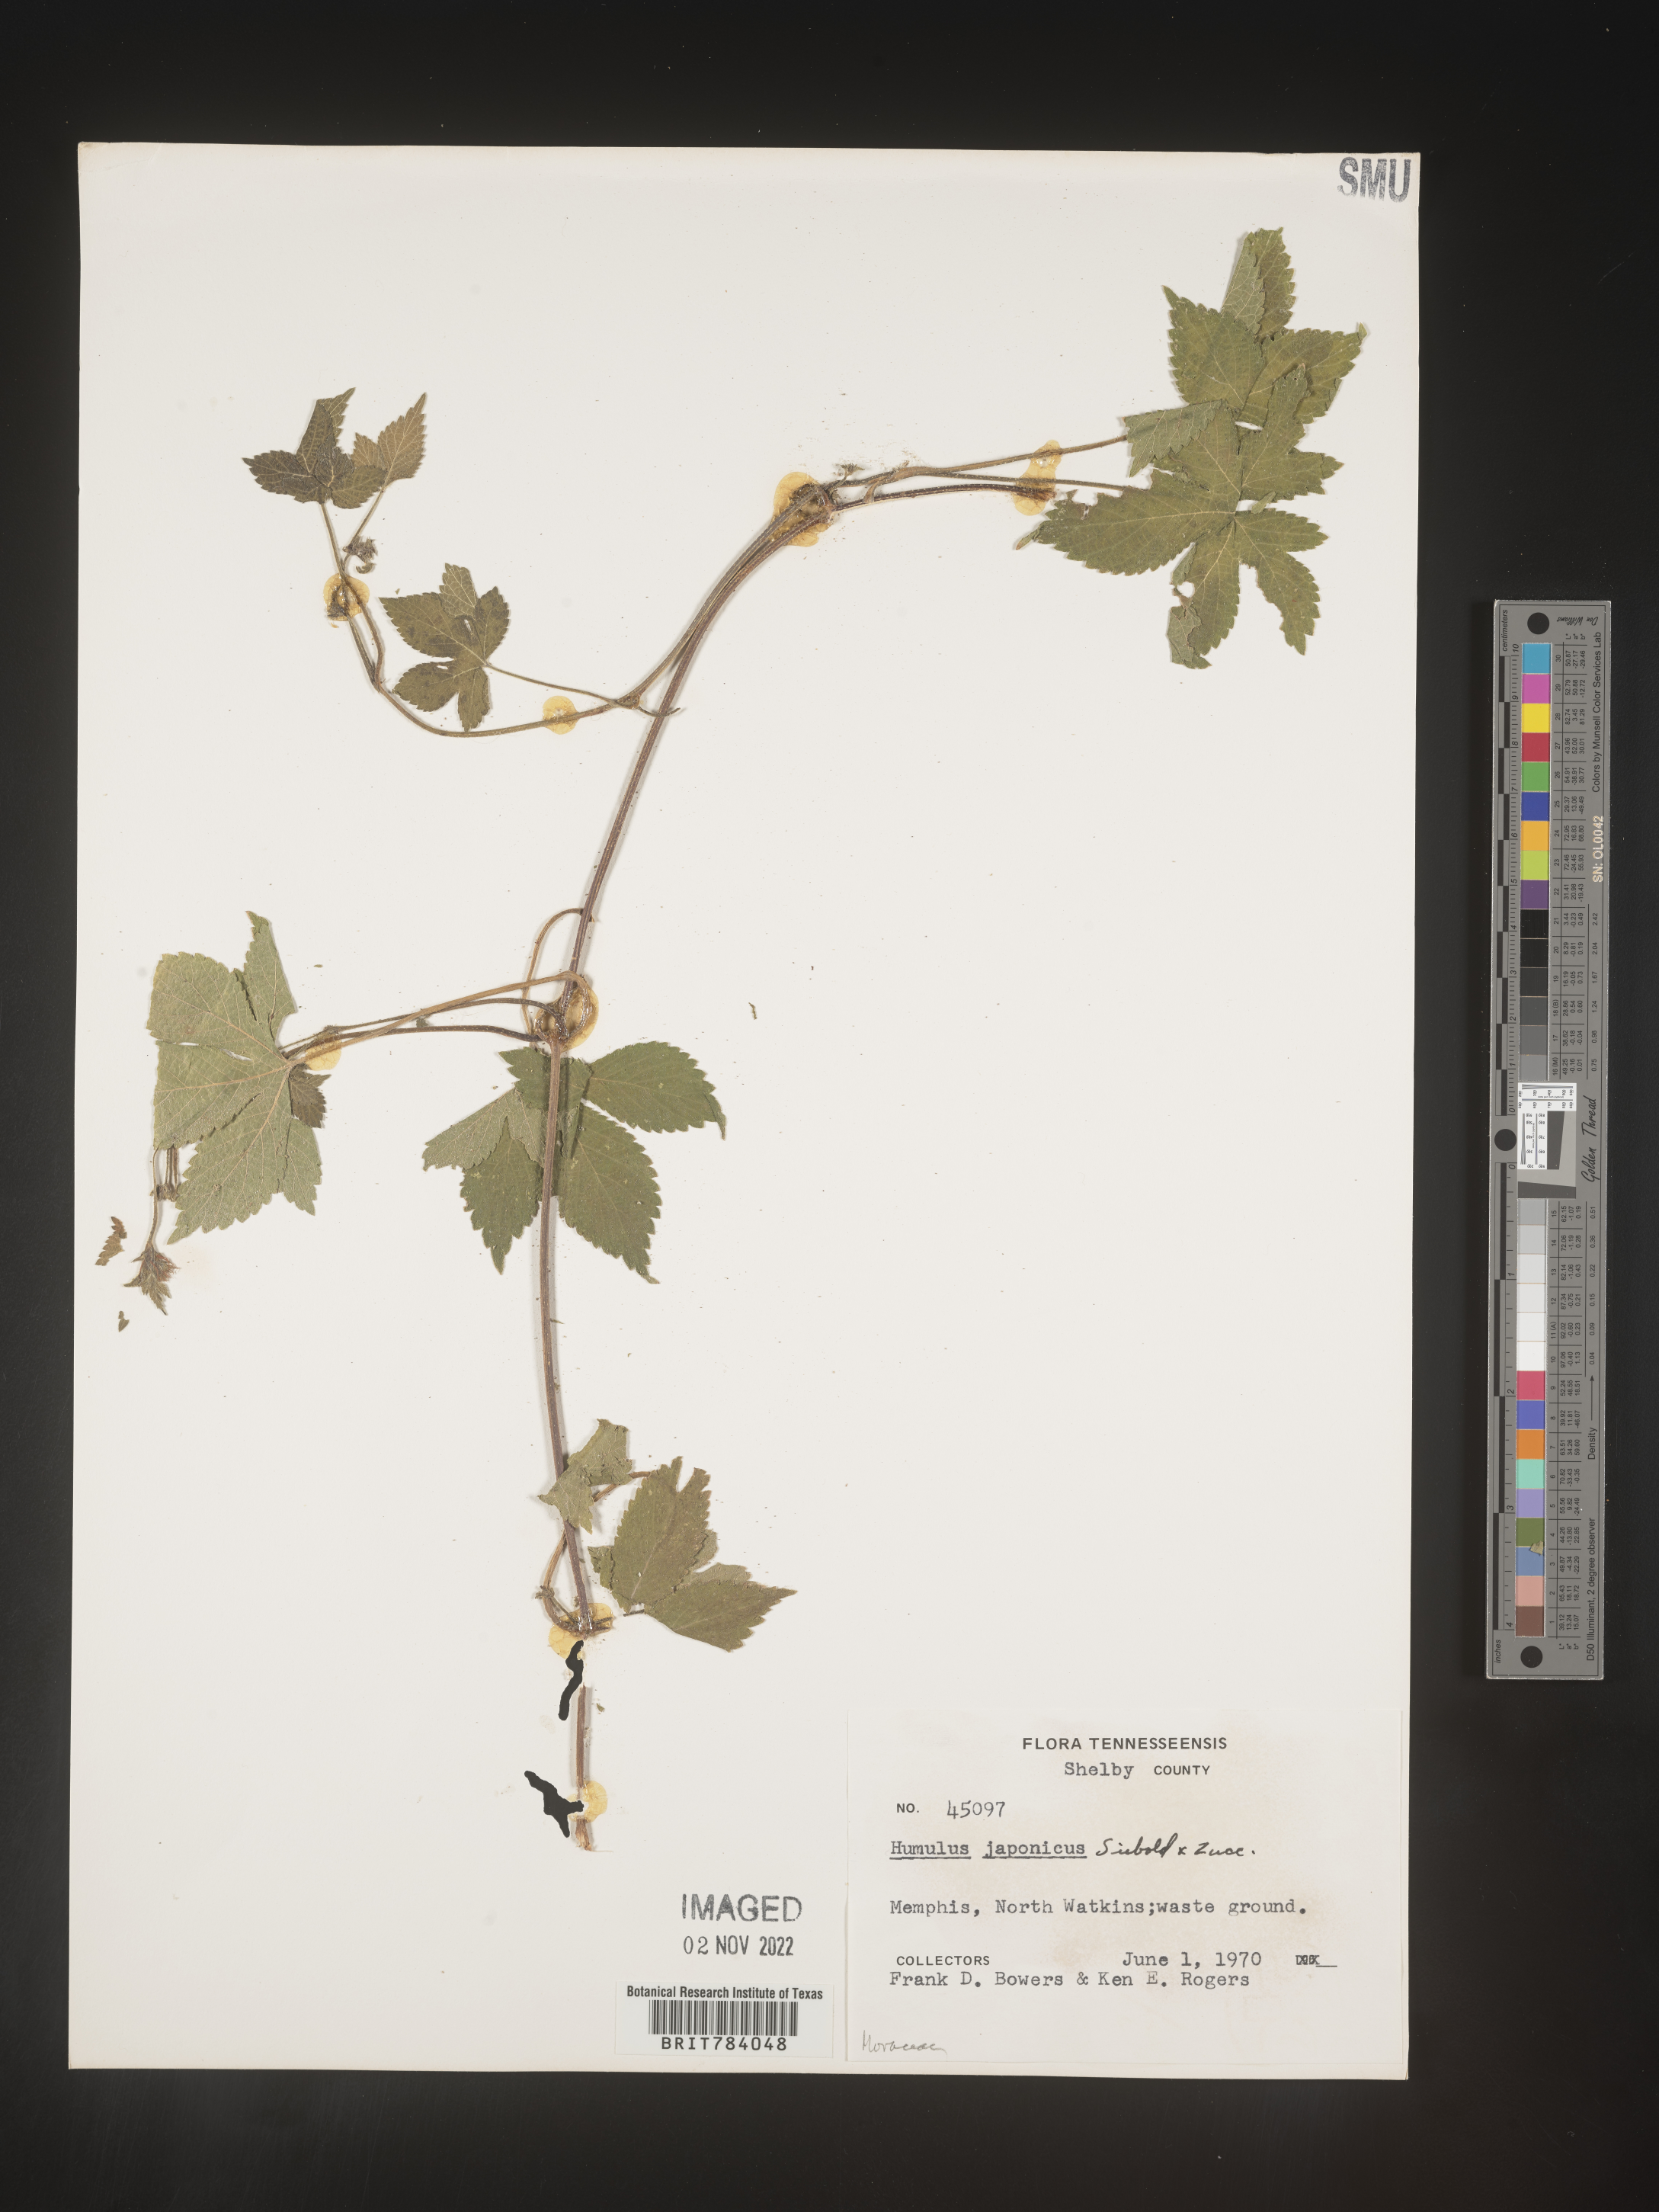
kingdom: Plantae
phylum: Tracheophyta
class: Magnoliopsida
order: Rosales
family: Cannabaceae
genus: Humulus
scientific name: Humulus scandens
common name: Japanese hop
